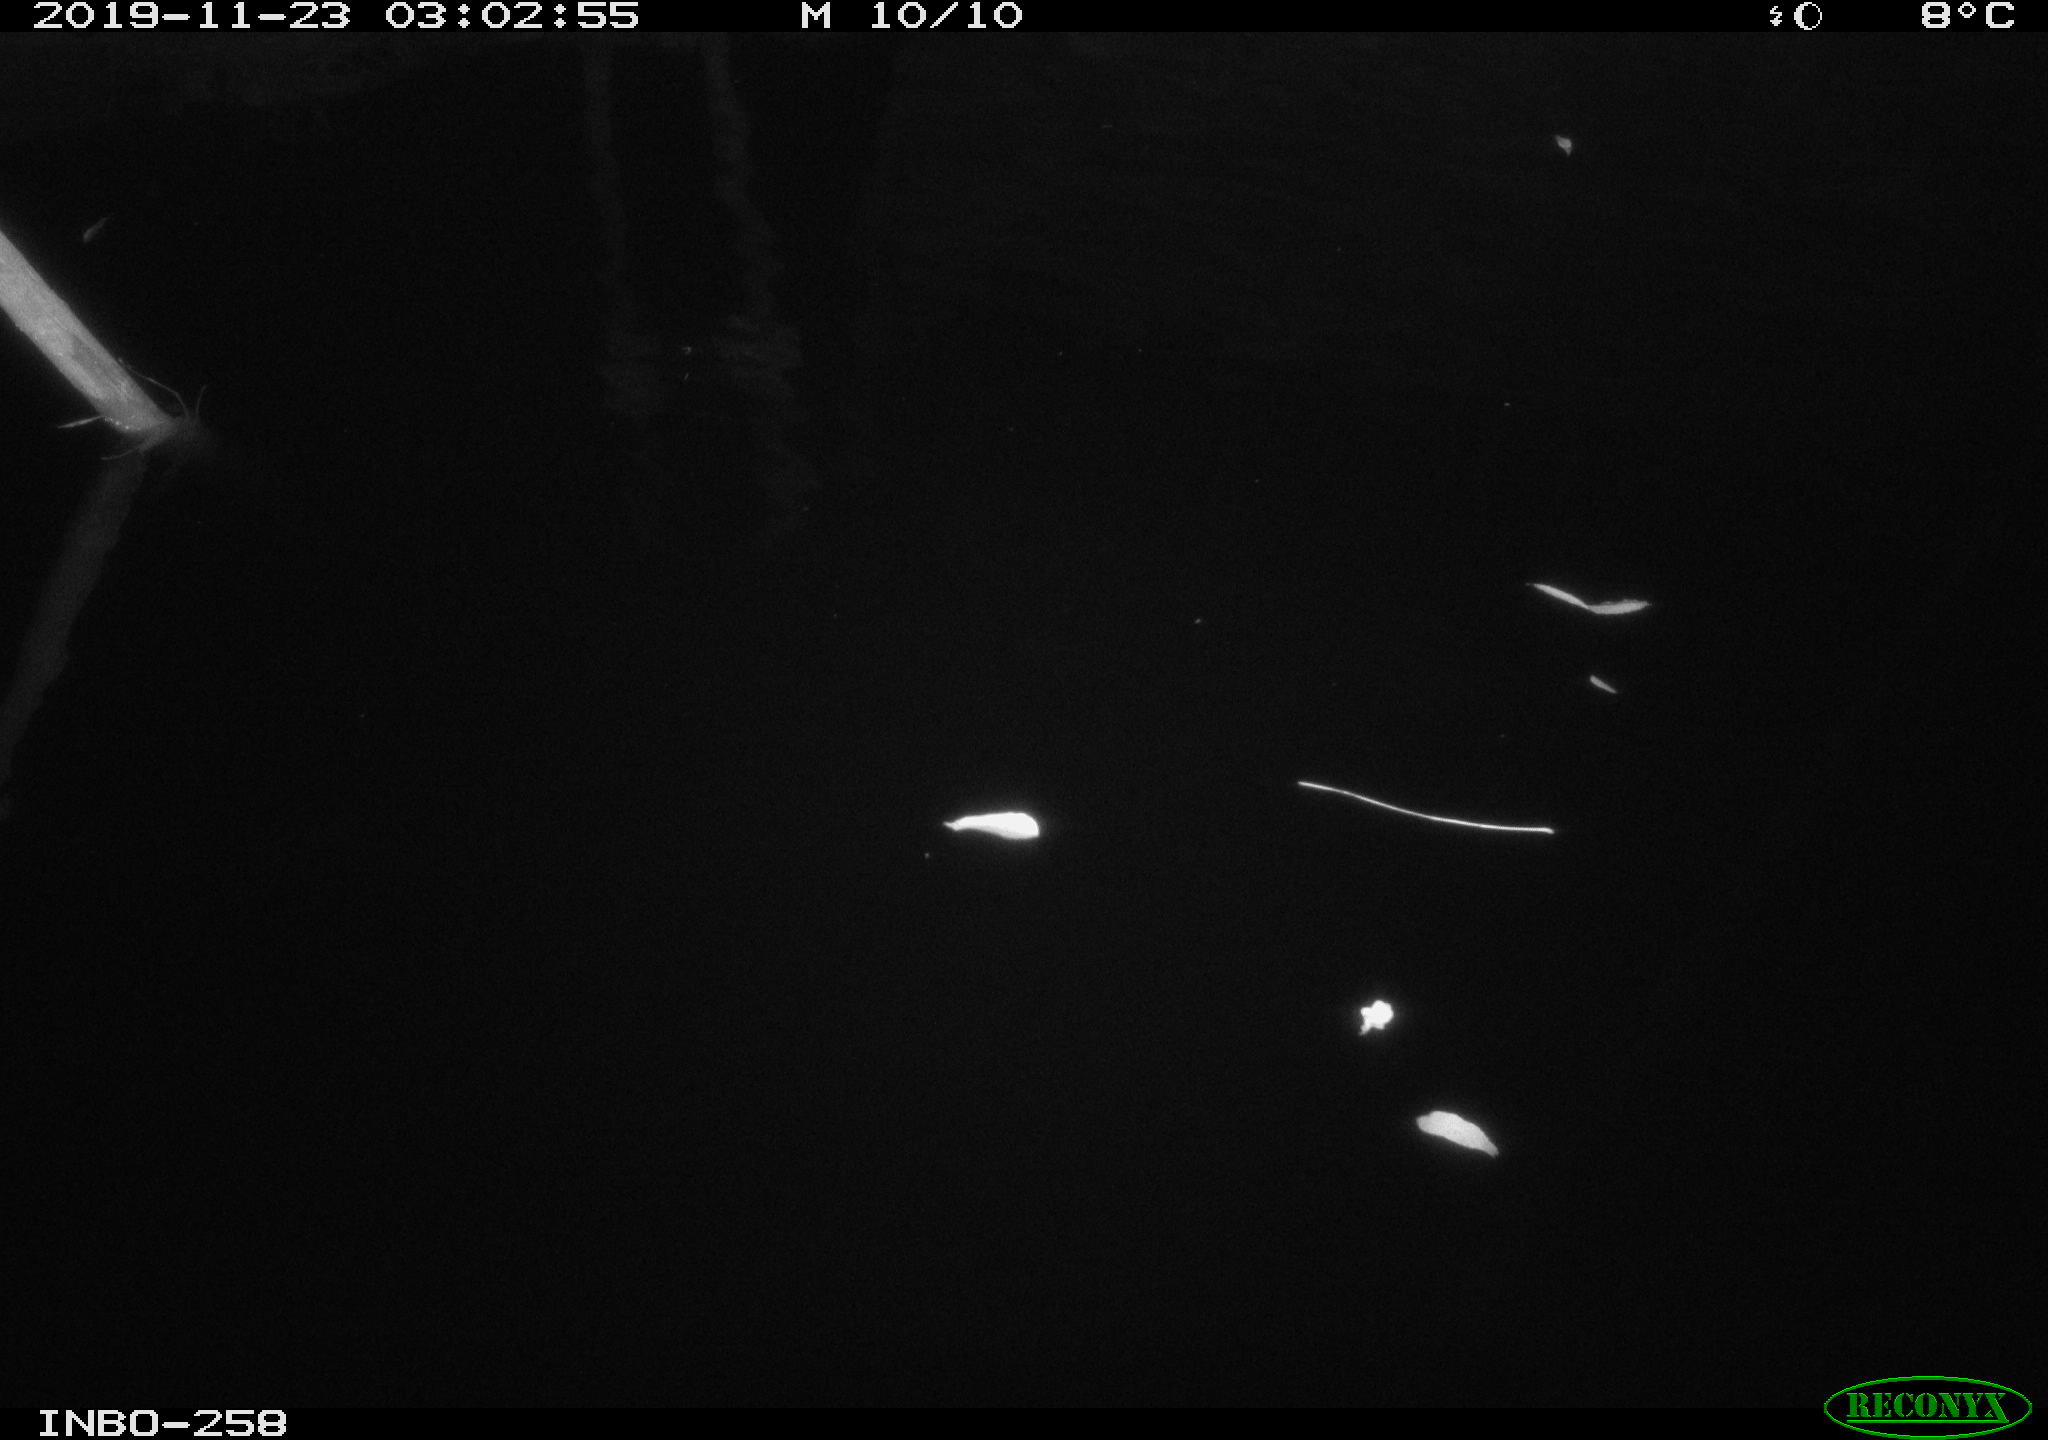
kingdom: Animalia
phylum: Chordata
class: Aves
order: Anseriformes
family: Anatidae
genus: Anas
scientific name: Anas platyrhynchos
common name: Mallard
